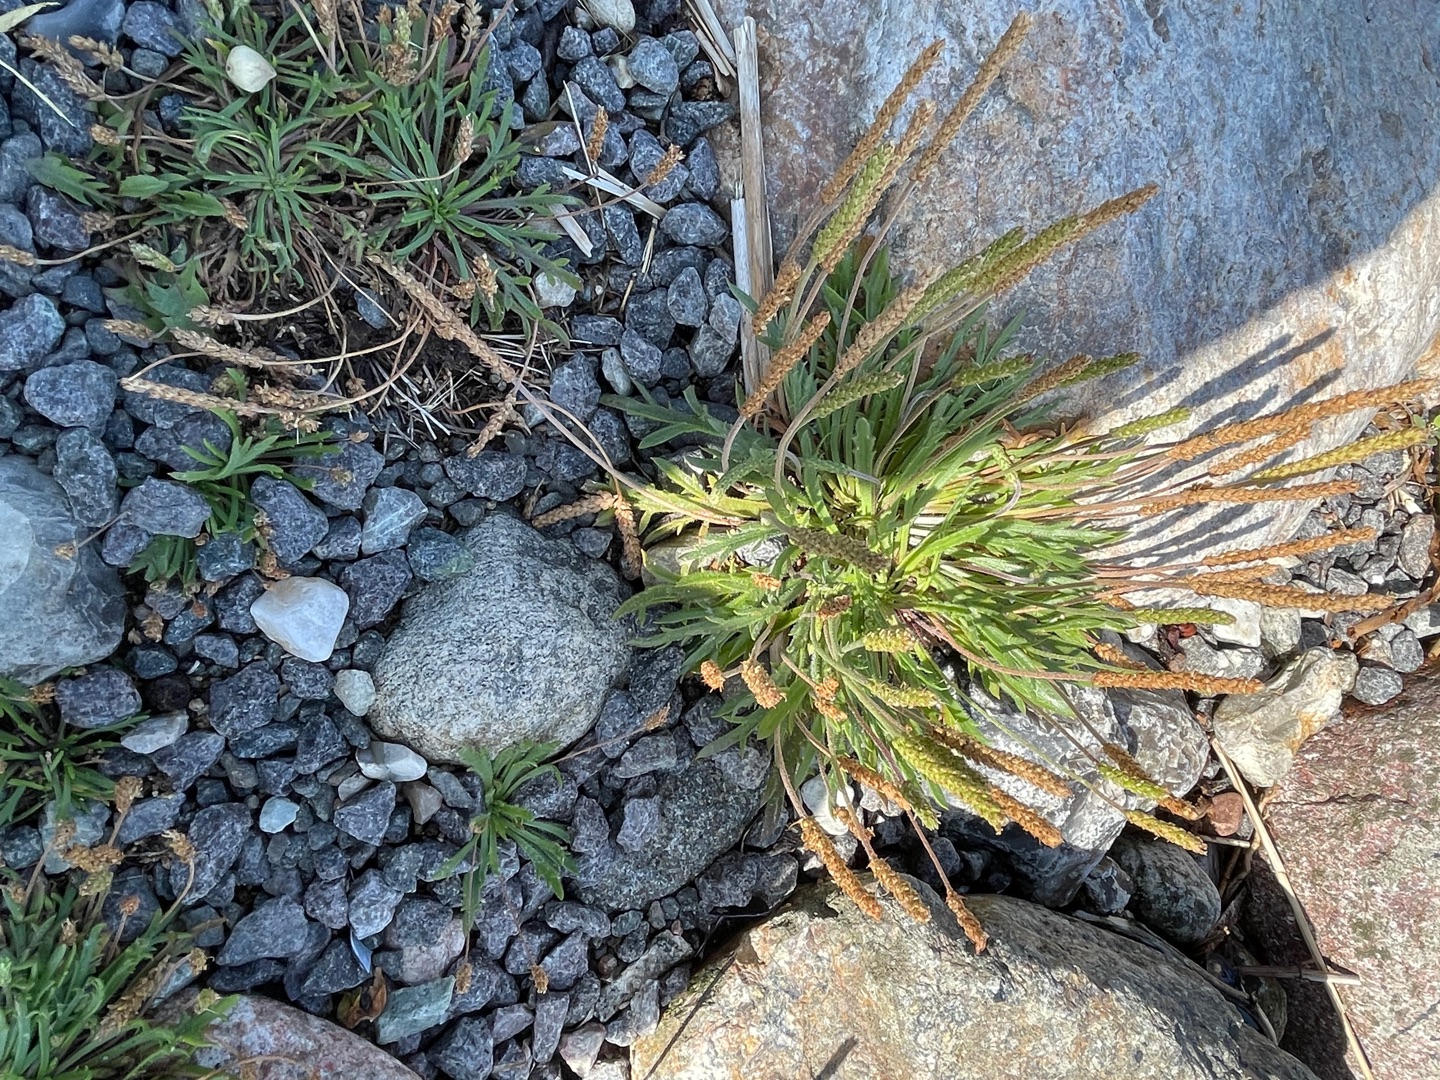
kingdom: Plantae
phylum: Tracheophyta
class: Magnoliopsida
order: Lamiales
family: Plantaginaceae
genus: Plantago
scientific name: Plantago coronopus
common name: Fliget vejbred
